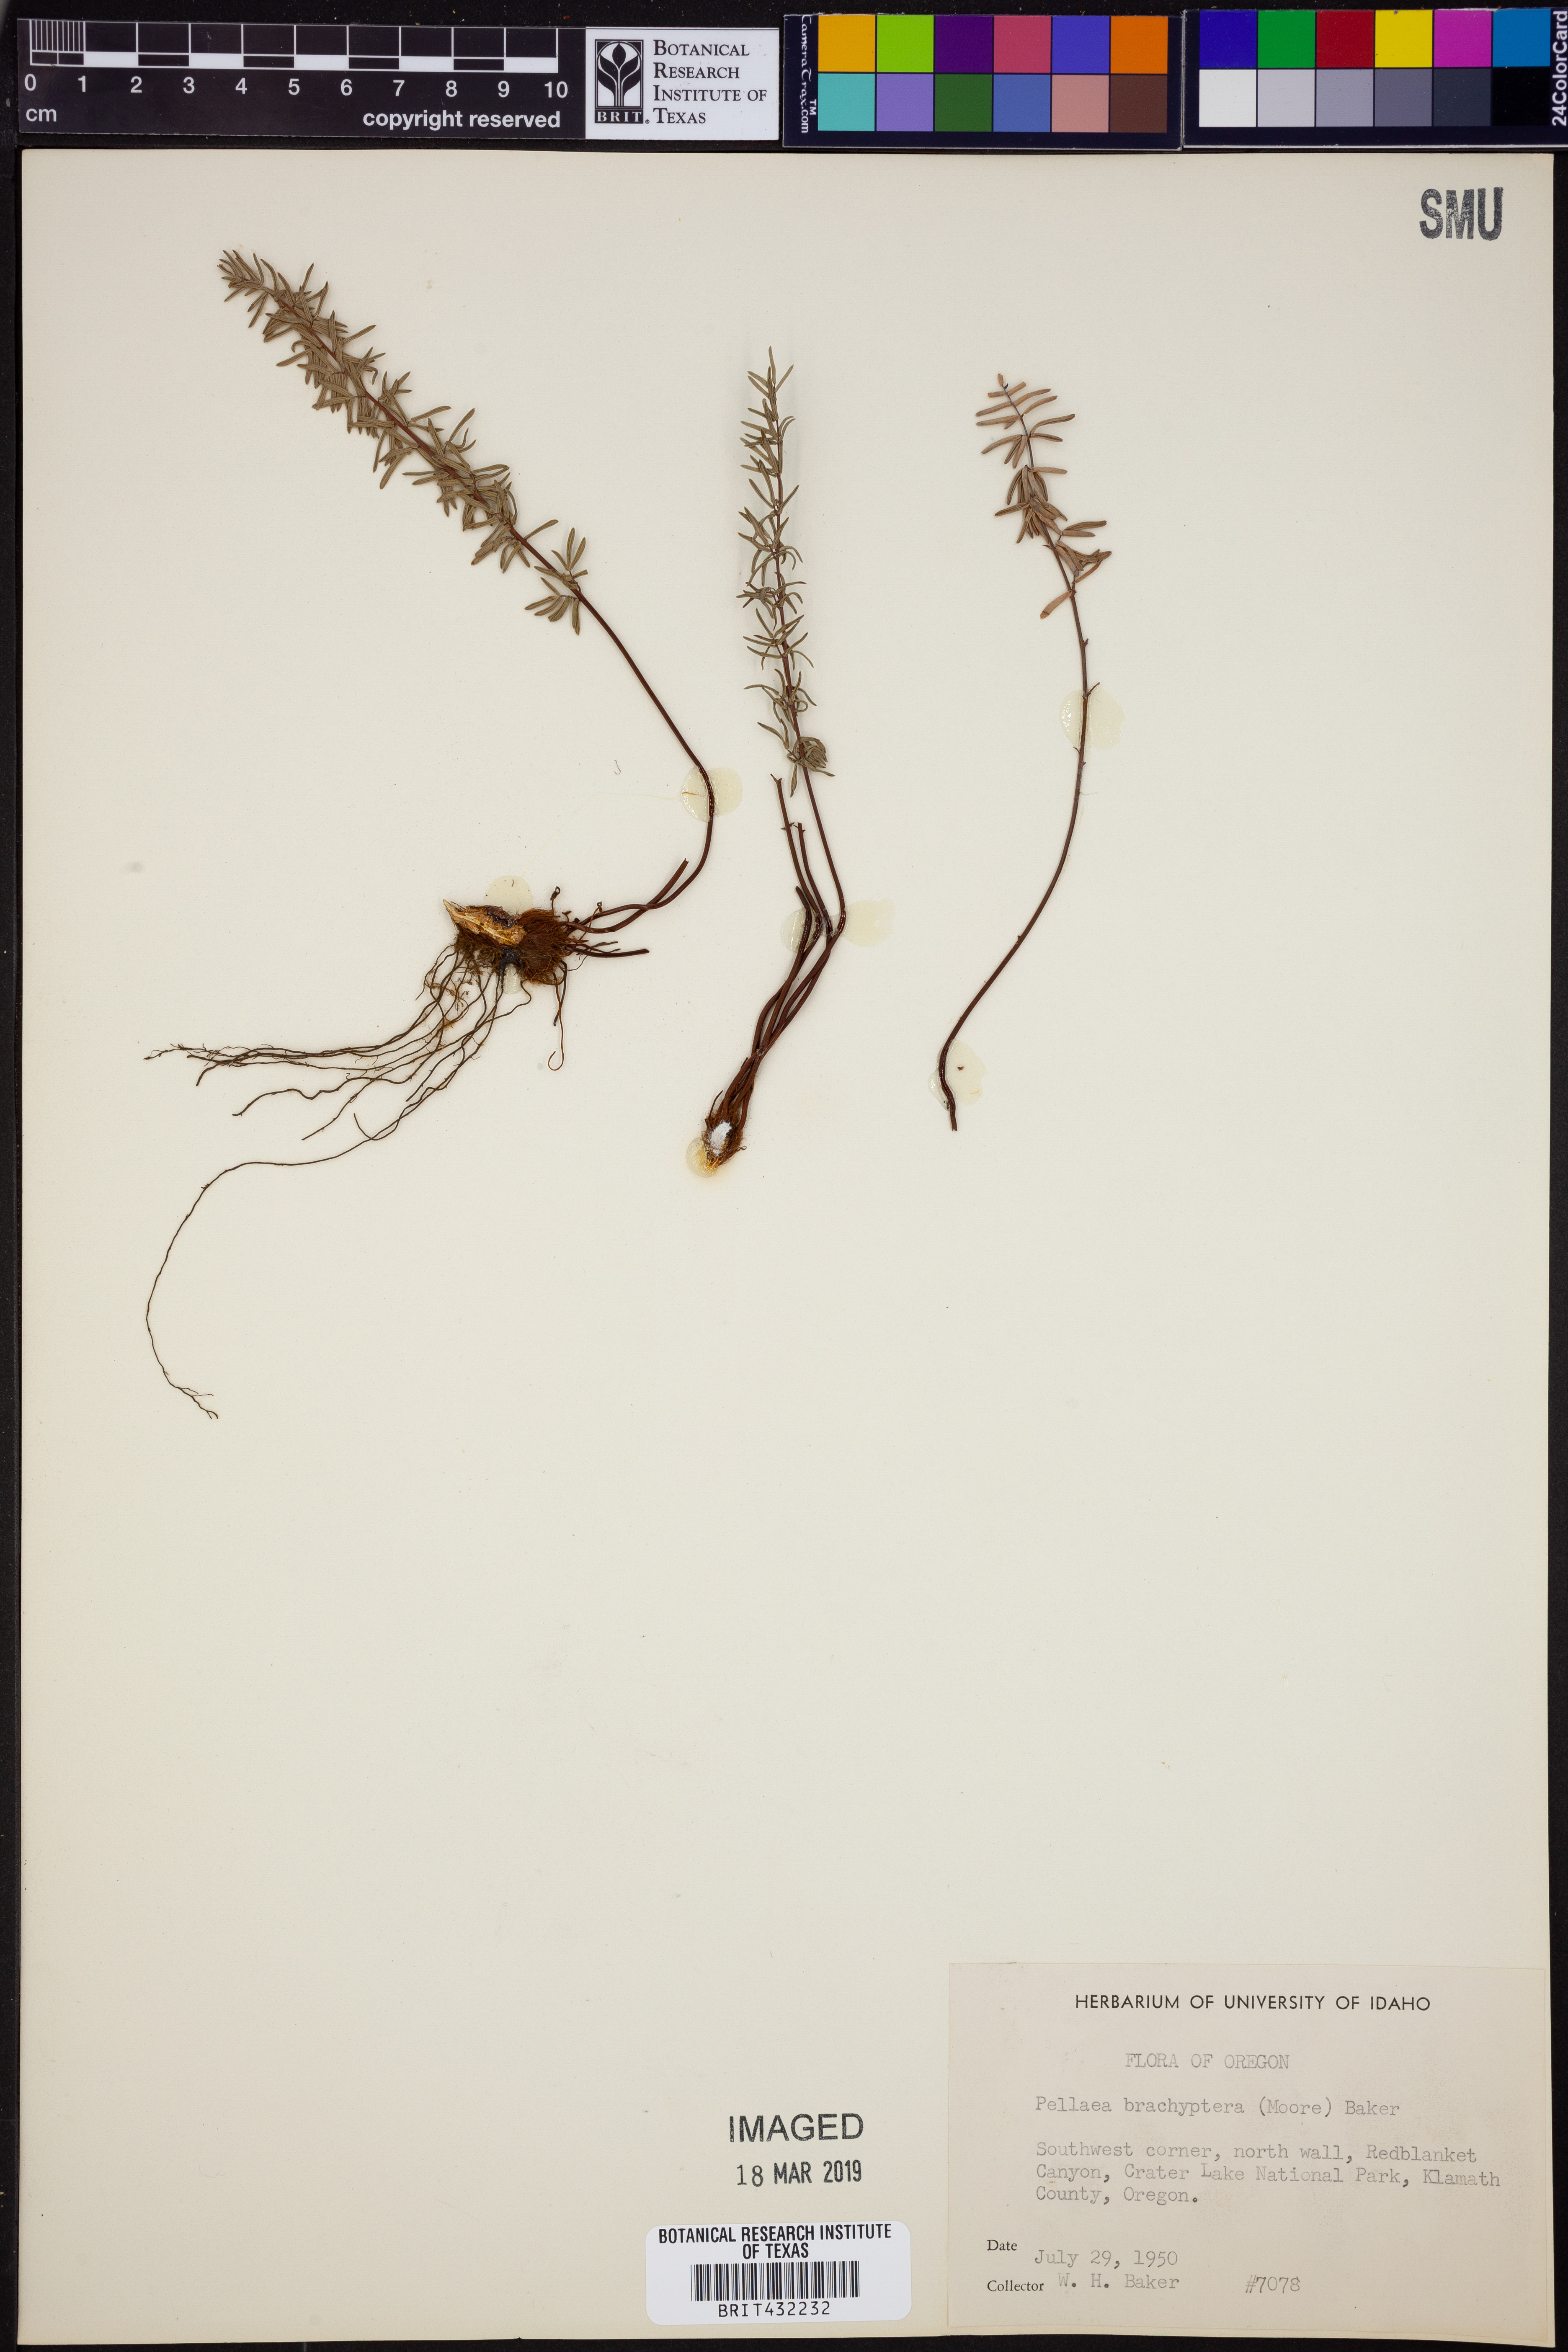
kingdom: Plantae
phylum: Tracheophyta
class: Polypodiopsida
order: Polypodiales
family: Pteridaceae
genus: Pellaea
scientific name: Pellaea brachyptera
